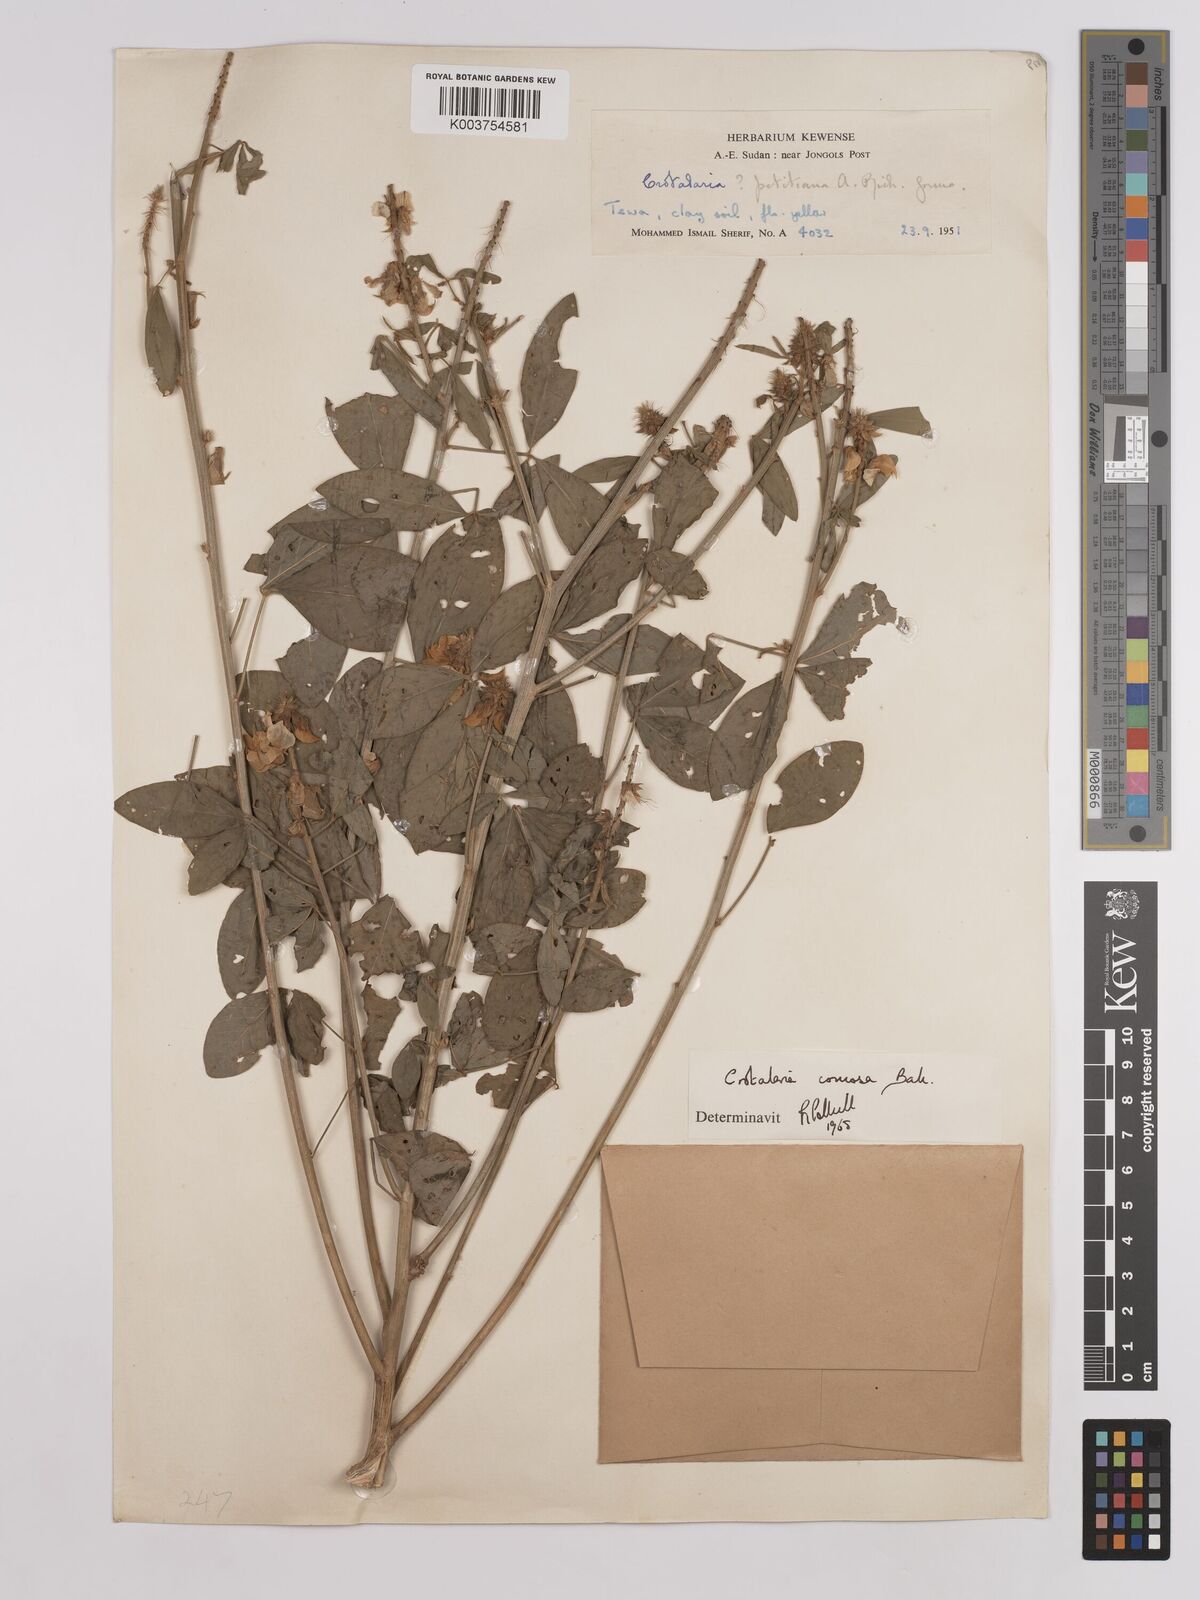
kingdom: Plantae
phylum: Tracheophyta
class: Magnoliopsida
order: Fabales
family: Fabaceae
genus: Crotalaria
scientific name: Crotalaria comosa
